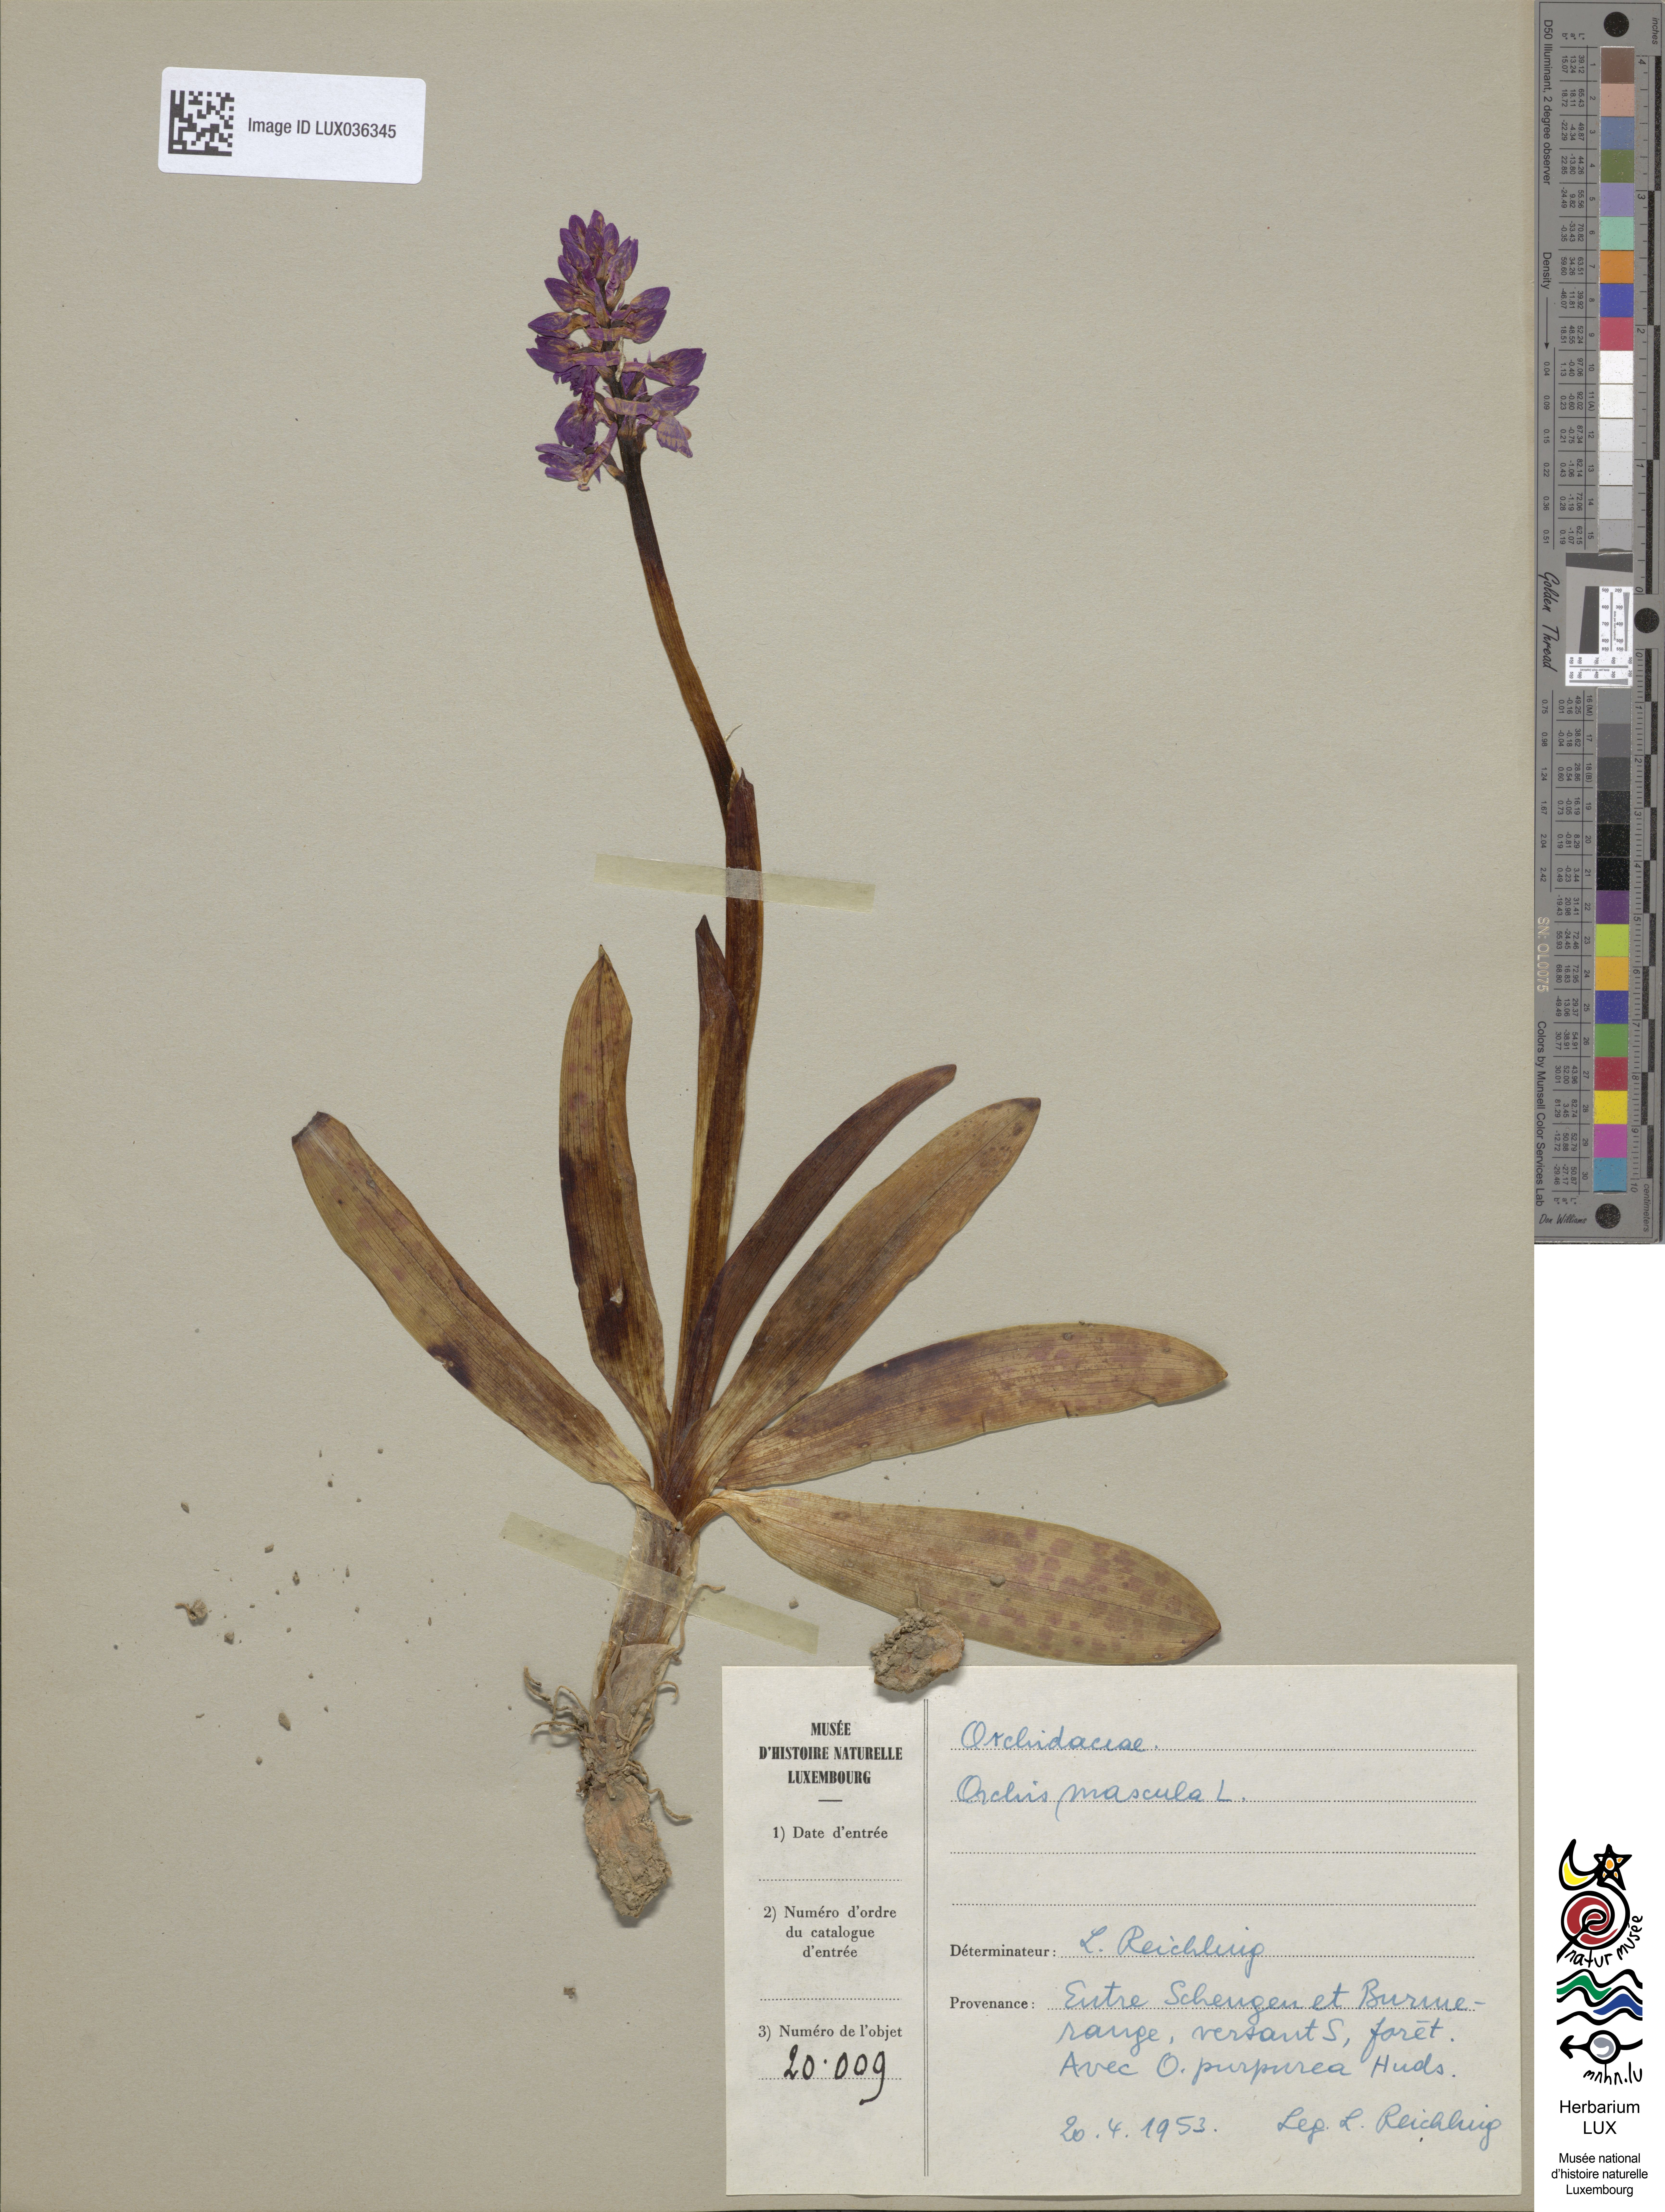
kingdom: Plantae
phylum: Tracheophyta
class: Liliopsida
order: Asparagales
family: Orchidaceae
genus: Orchis
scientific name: Orchis mascula
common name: Early-purple orchid
